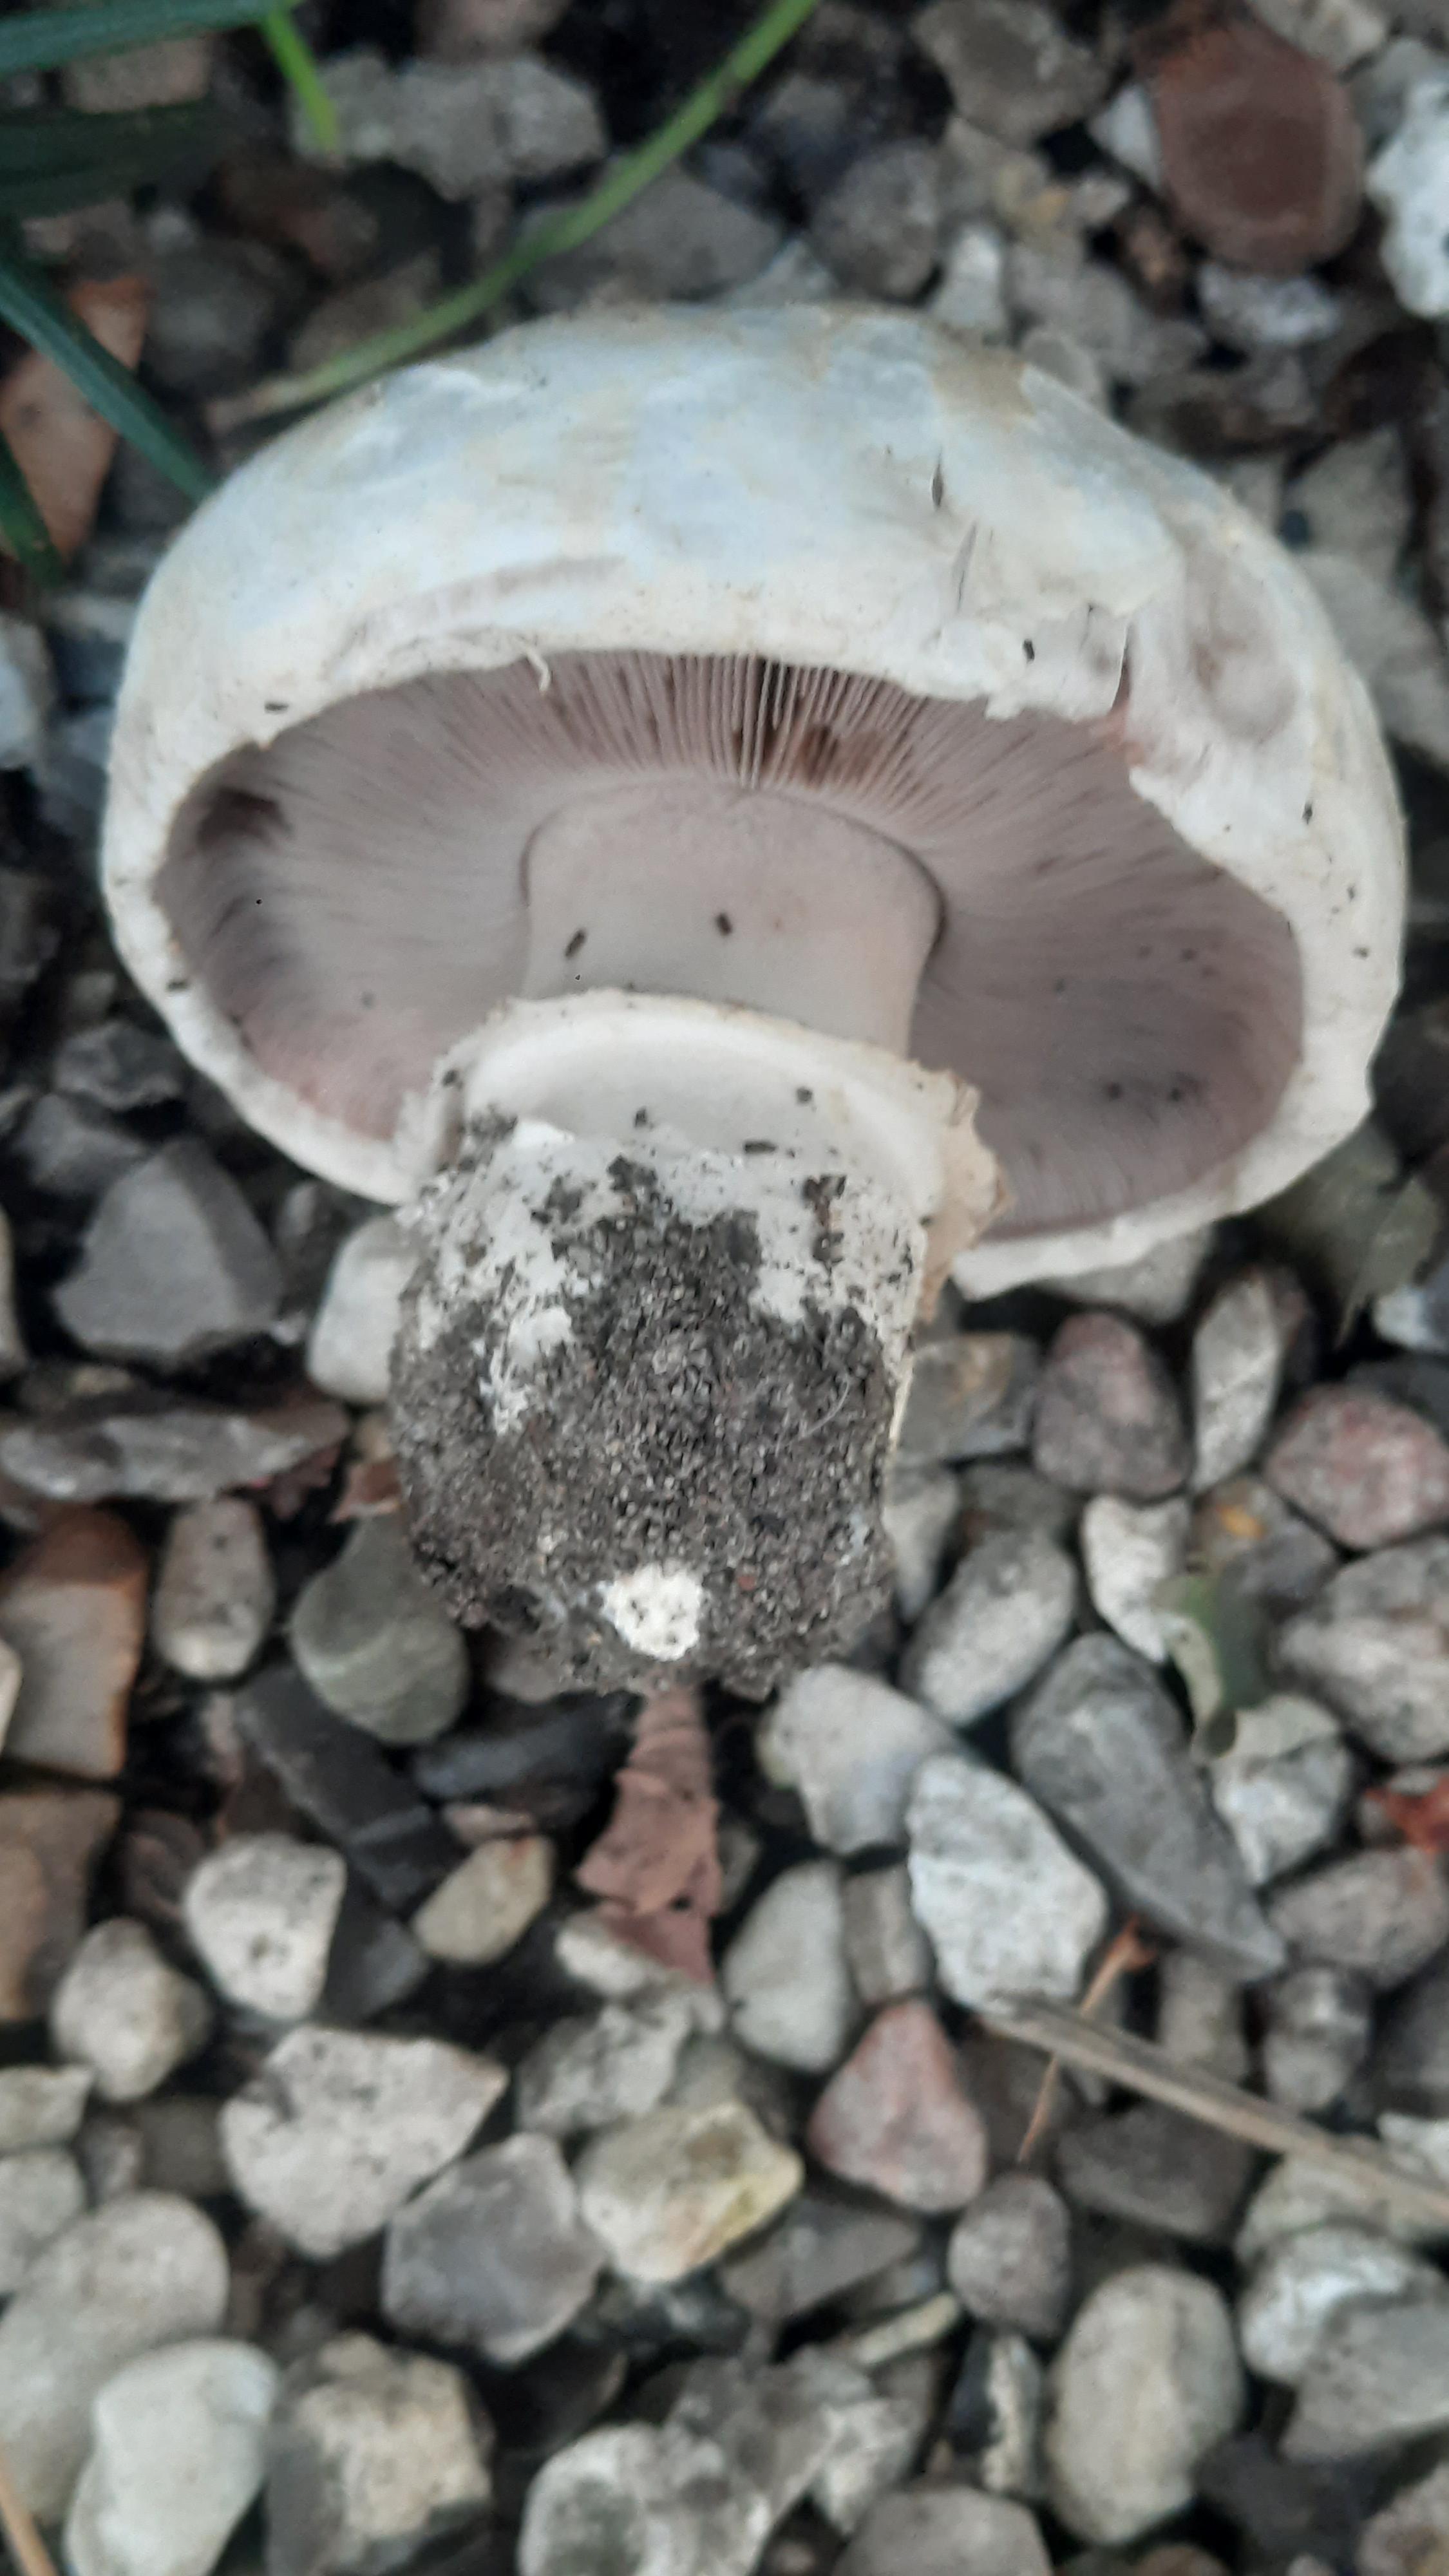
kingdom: Fungi
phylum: Basidiomycota
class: Agaricomycetes
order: Agaricales
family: Agaricaceae
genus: Agaricus
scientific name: Agaricus bitorquis
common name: vej-champignon
